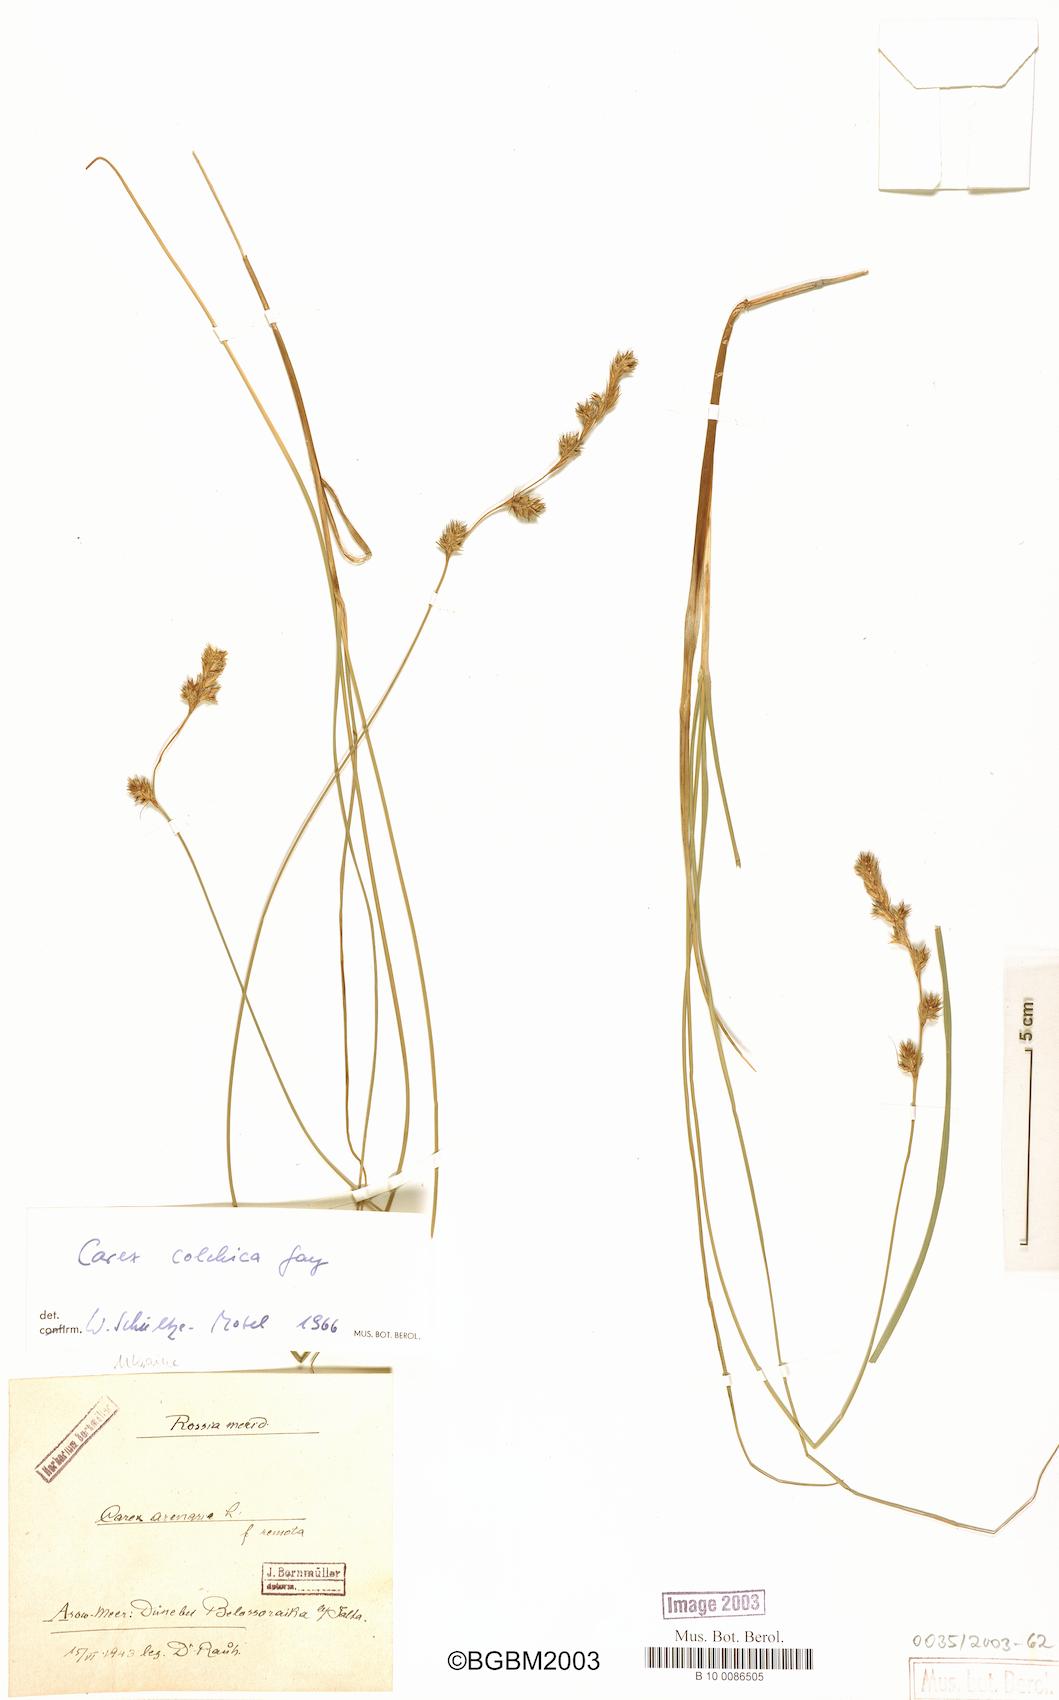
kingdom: Plantae
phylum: Tracheophyta
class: Liliopsida
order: Poales
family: Cyperaceae
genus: Carex
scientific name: Carex colchica
